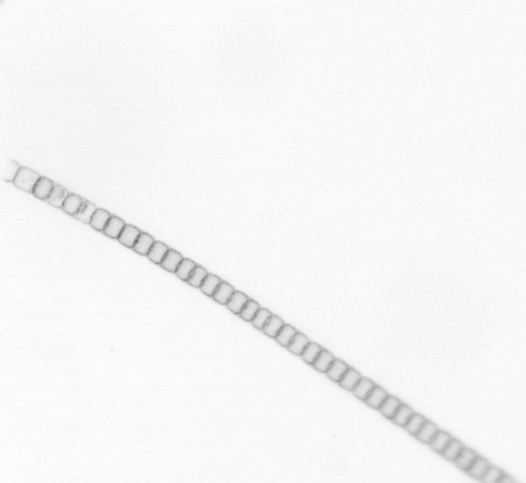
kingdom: Chromista
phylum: Ochrophyta
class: Bacillariophyceae
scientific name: Bacillariophyceae
